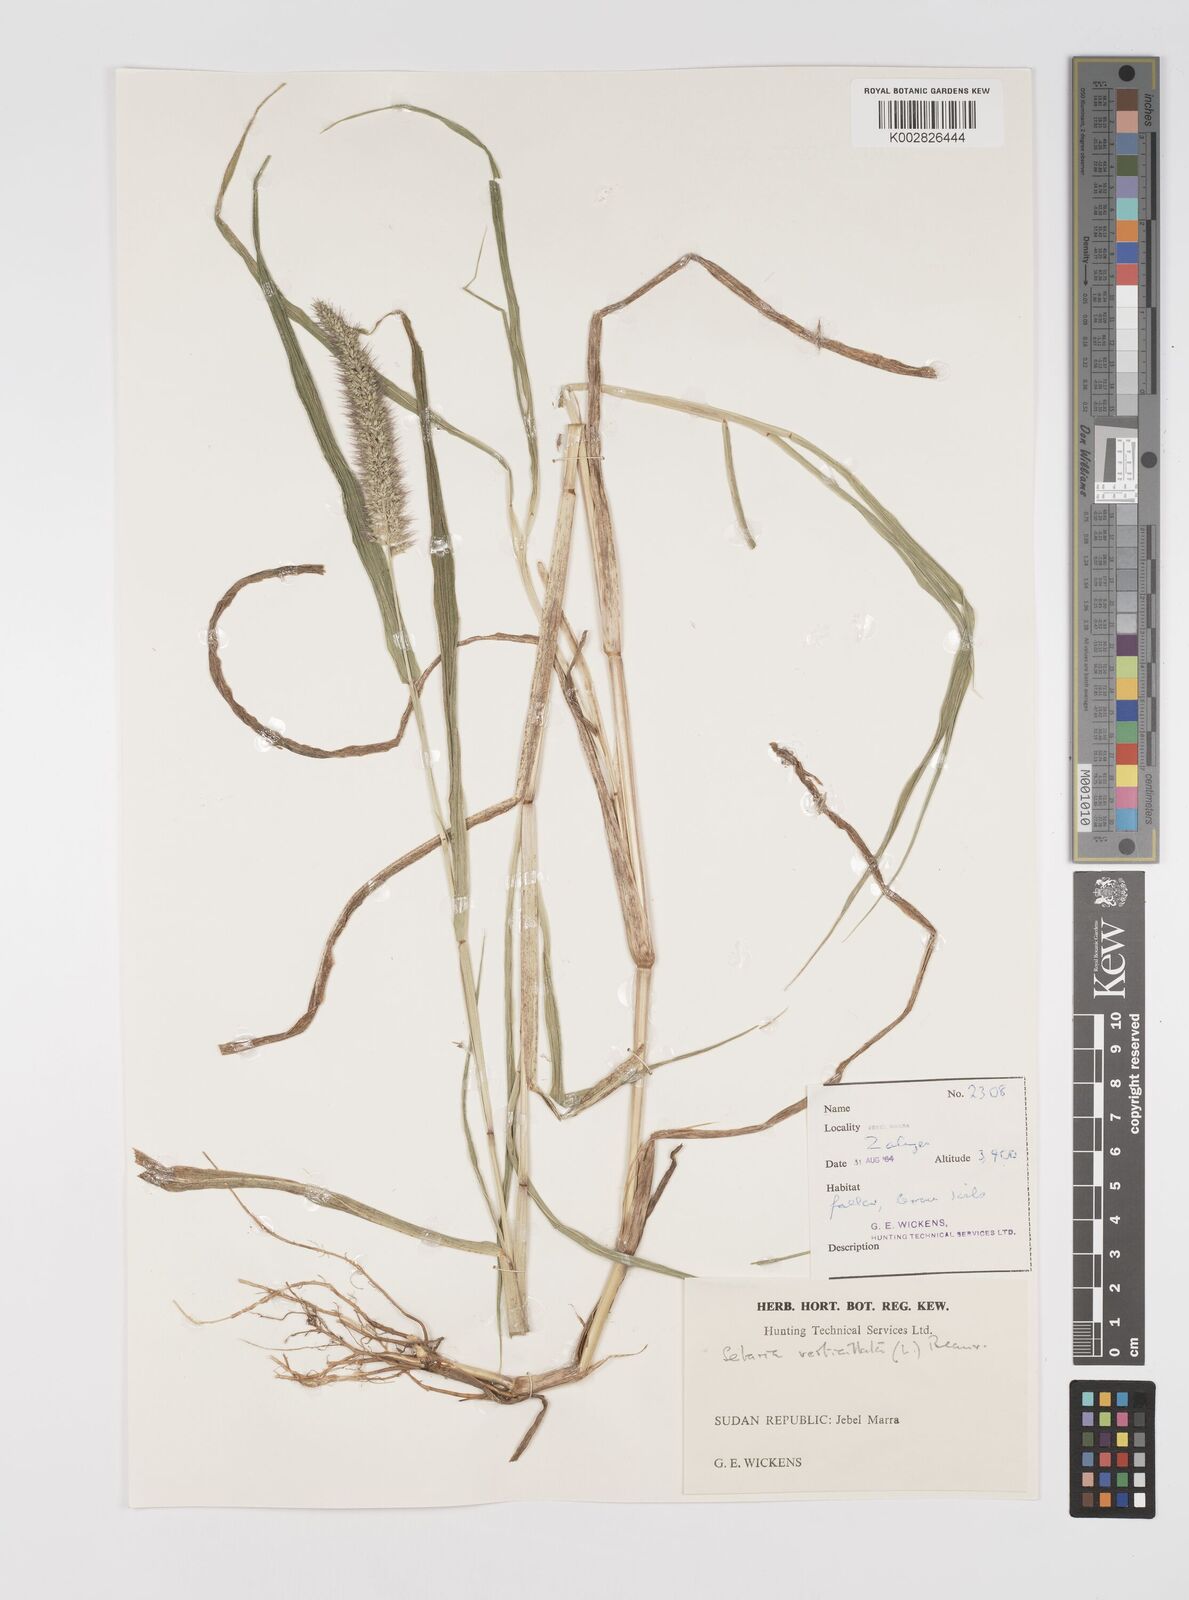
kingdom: Plantae
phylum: Tracheophyta
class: Liliopsida
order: Poales
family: Poaceae
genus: Setaria
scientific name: Setaria verticillata
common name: Hooked bristlegrass
